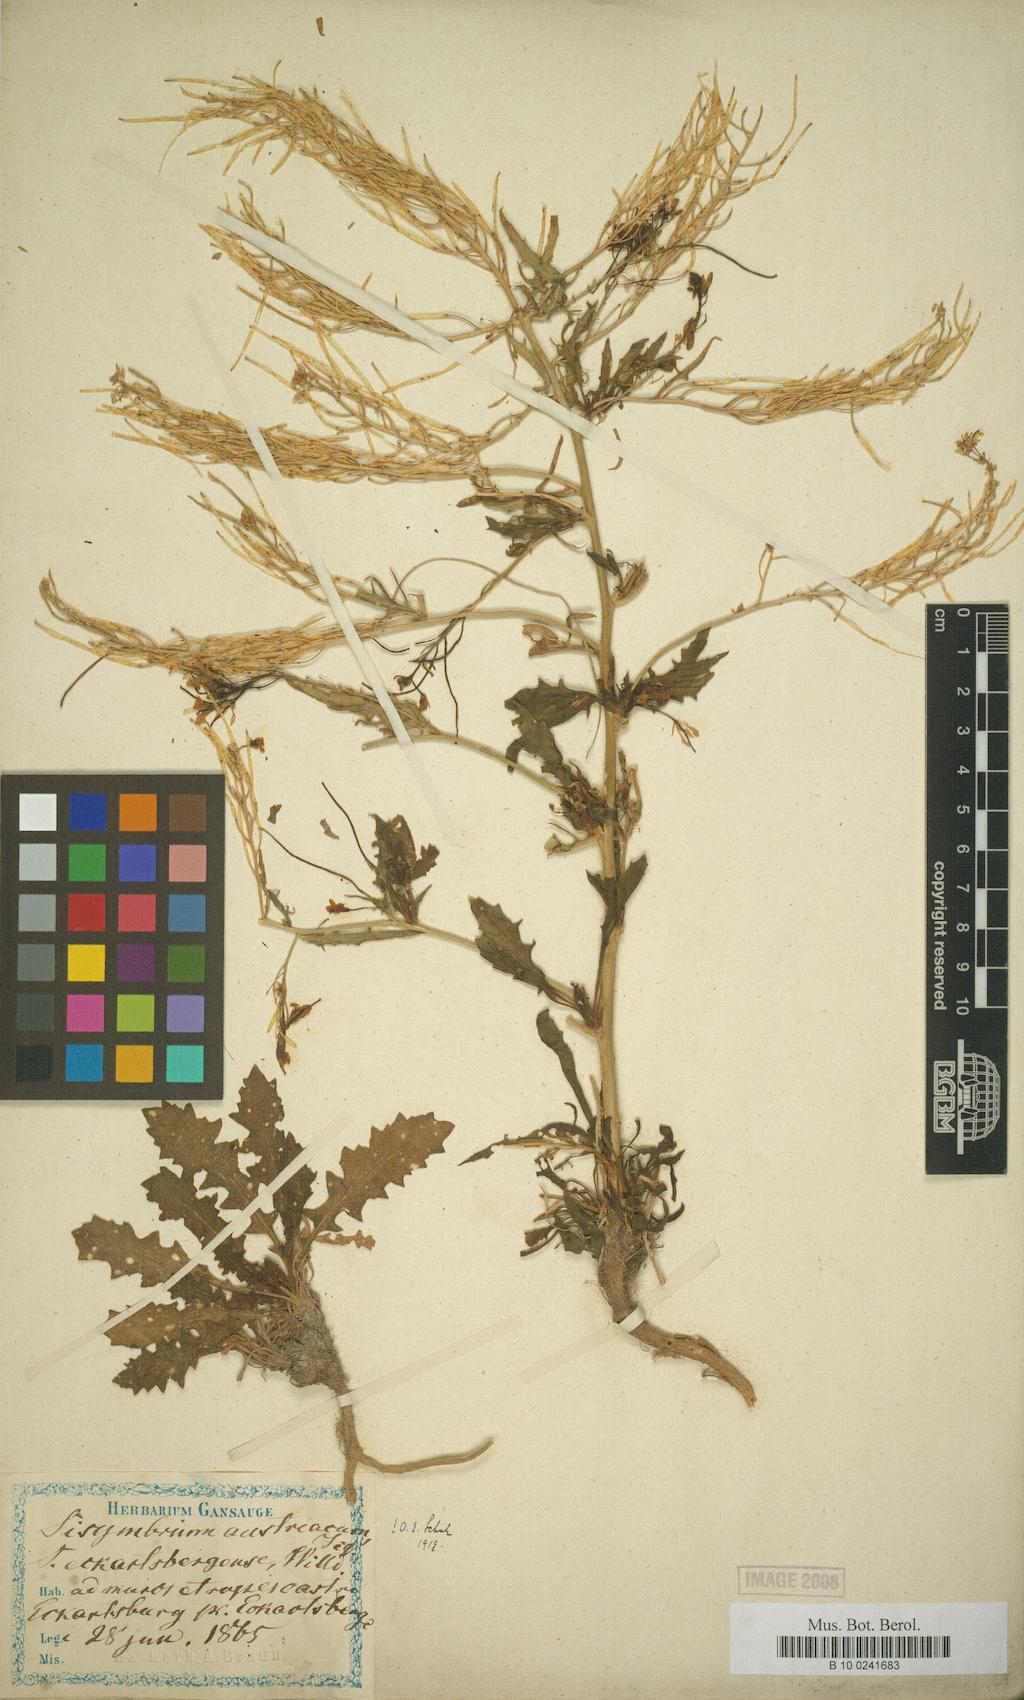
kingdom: Plantae
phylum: Tracheophyta
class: Magnoliopsida
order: Brassicales
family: Brassicaceae
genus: Sisymbrium
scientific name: Sisymbrium austriacum
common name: Jeweled rocket
